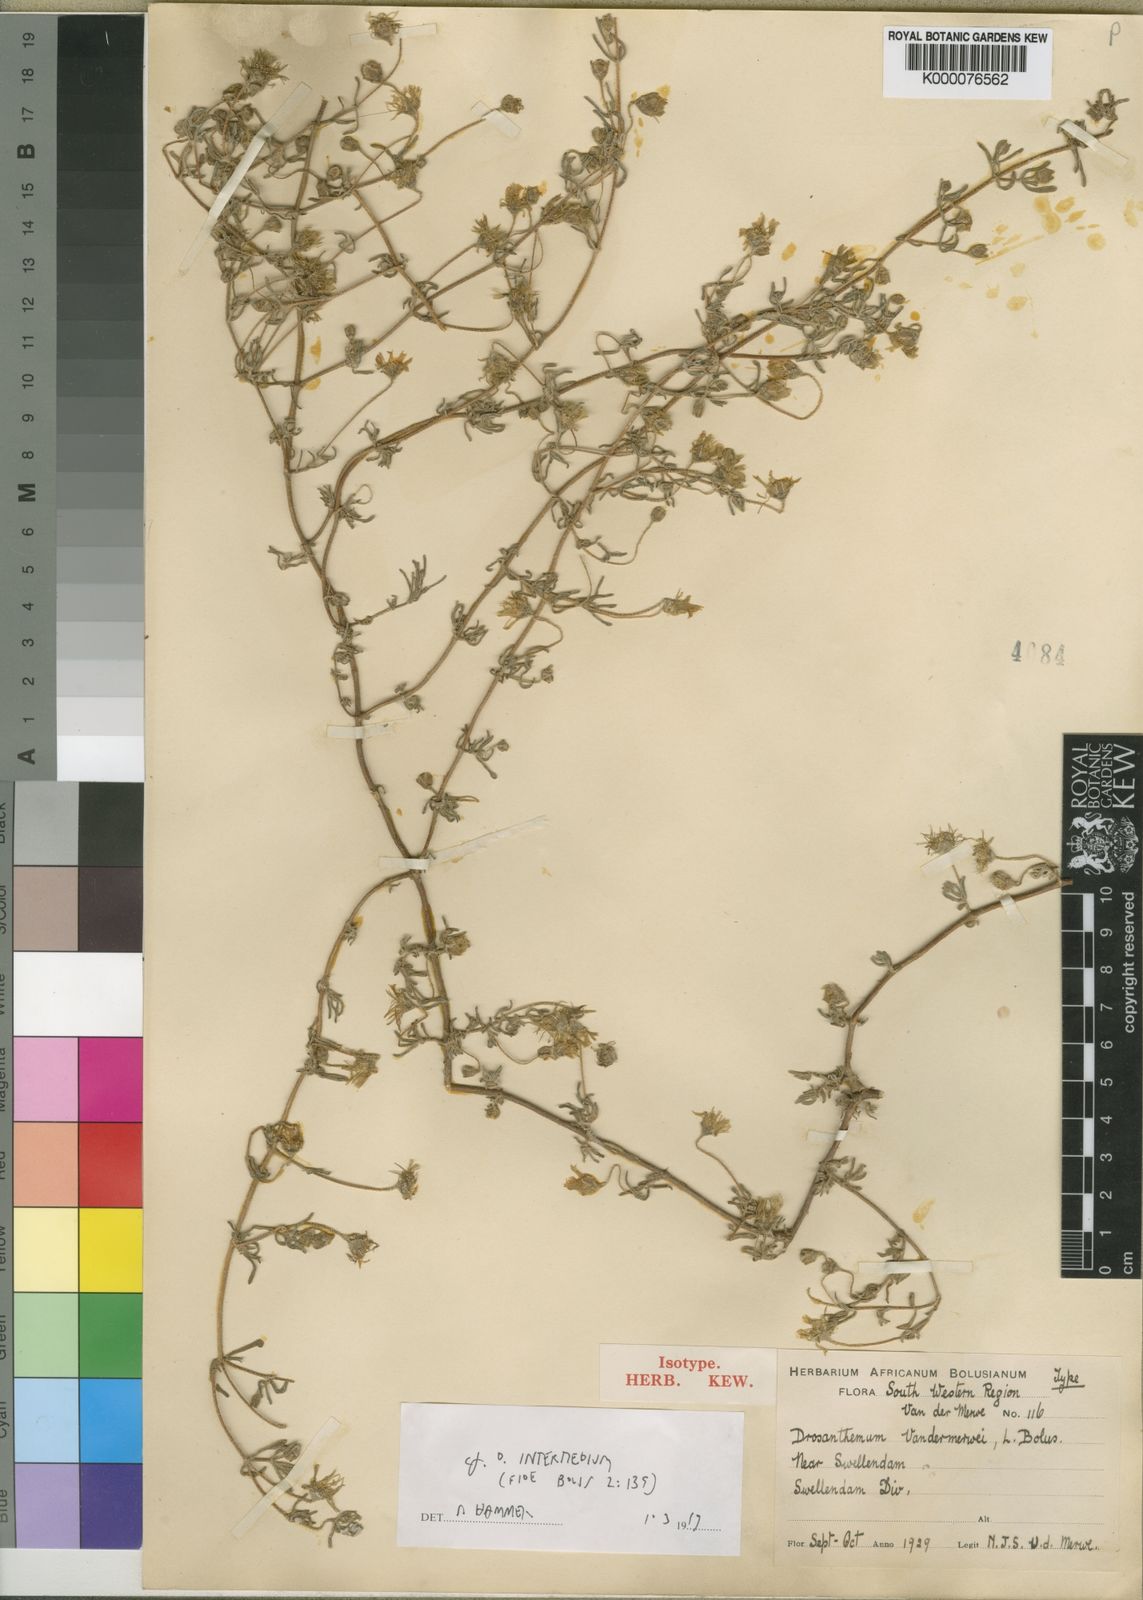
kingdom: Plantae
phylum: Tracheophyta
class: Magnoliopsida
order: Caryophyllales
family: Aizoaceae
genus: Drosanthemum
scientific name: Drosanthemum vandermerwei
